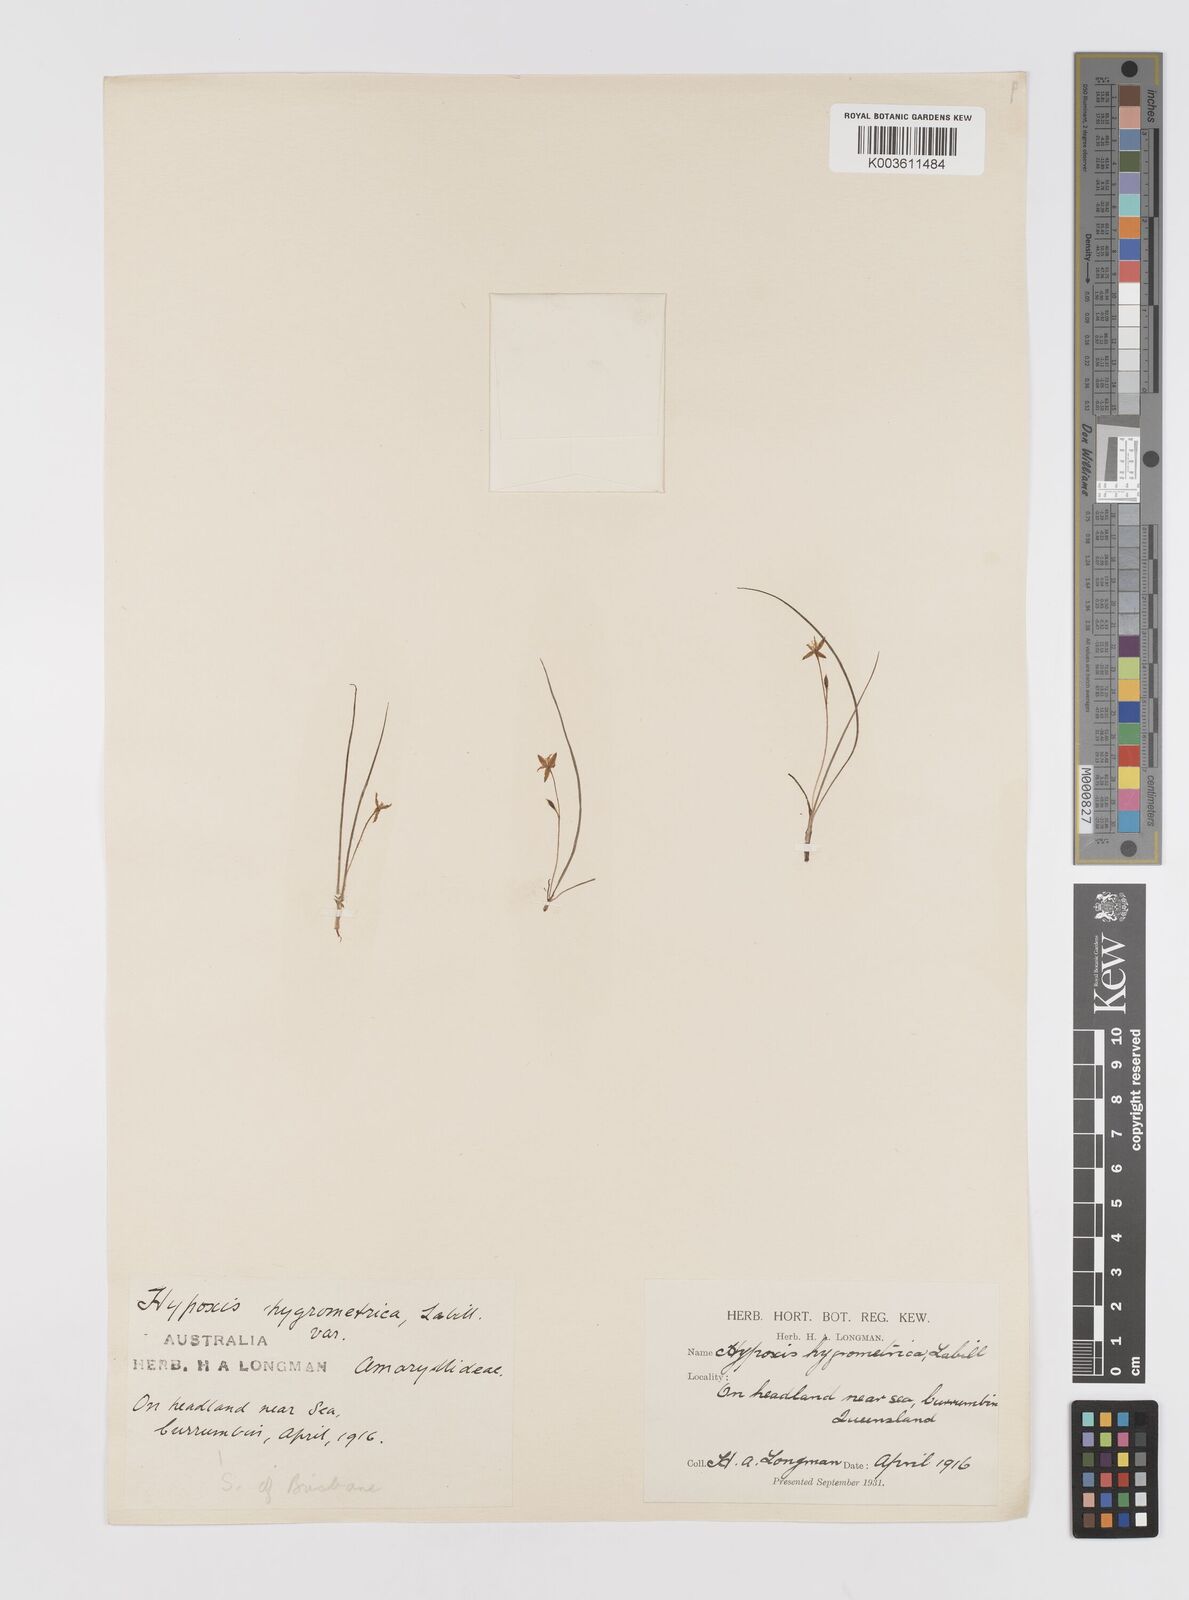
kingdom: Plantae
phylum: Tracheophyta
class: Liliopsida
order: Asparagales
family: Hypoxidaceae
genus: Hypoxis
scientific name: Hypoxis hygrometrica
